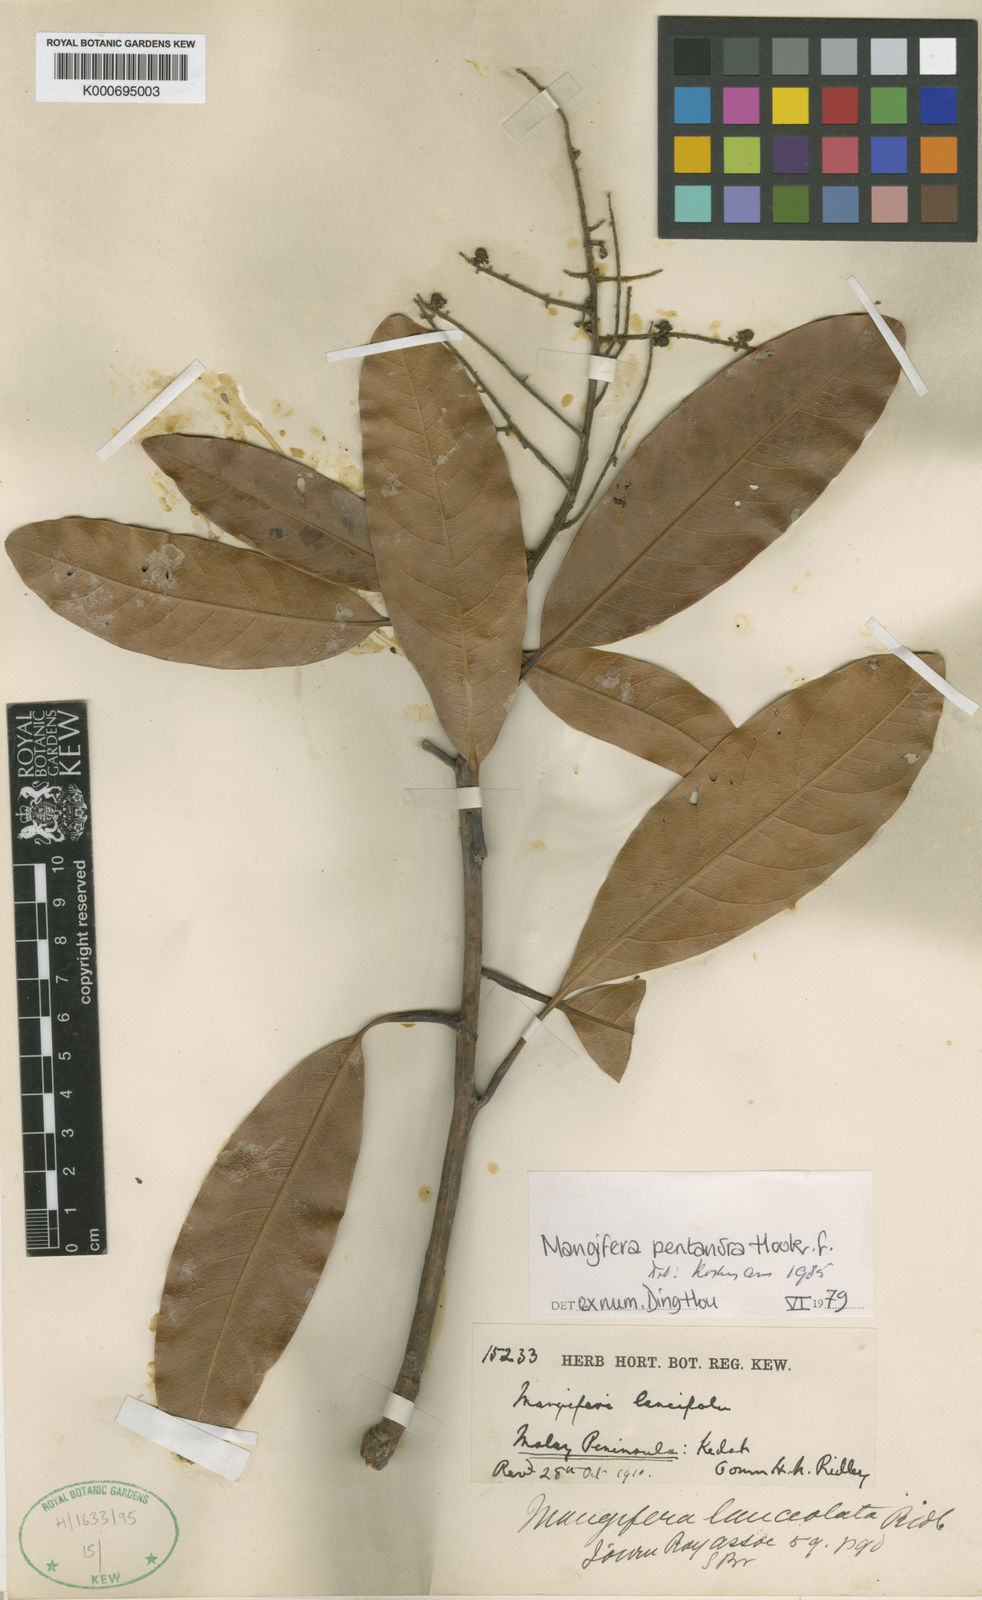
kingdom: Plantae
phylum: Tracheophyta
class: Magnoliopsida
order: Sapindales
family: Anacardiaceae
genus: Mangifera
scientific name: Mangifera pentandra
